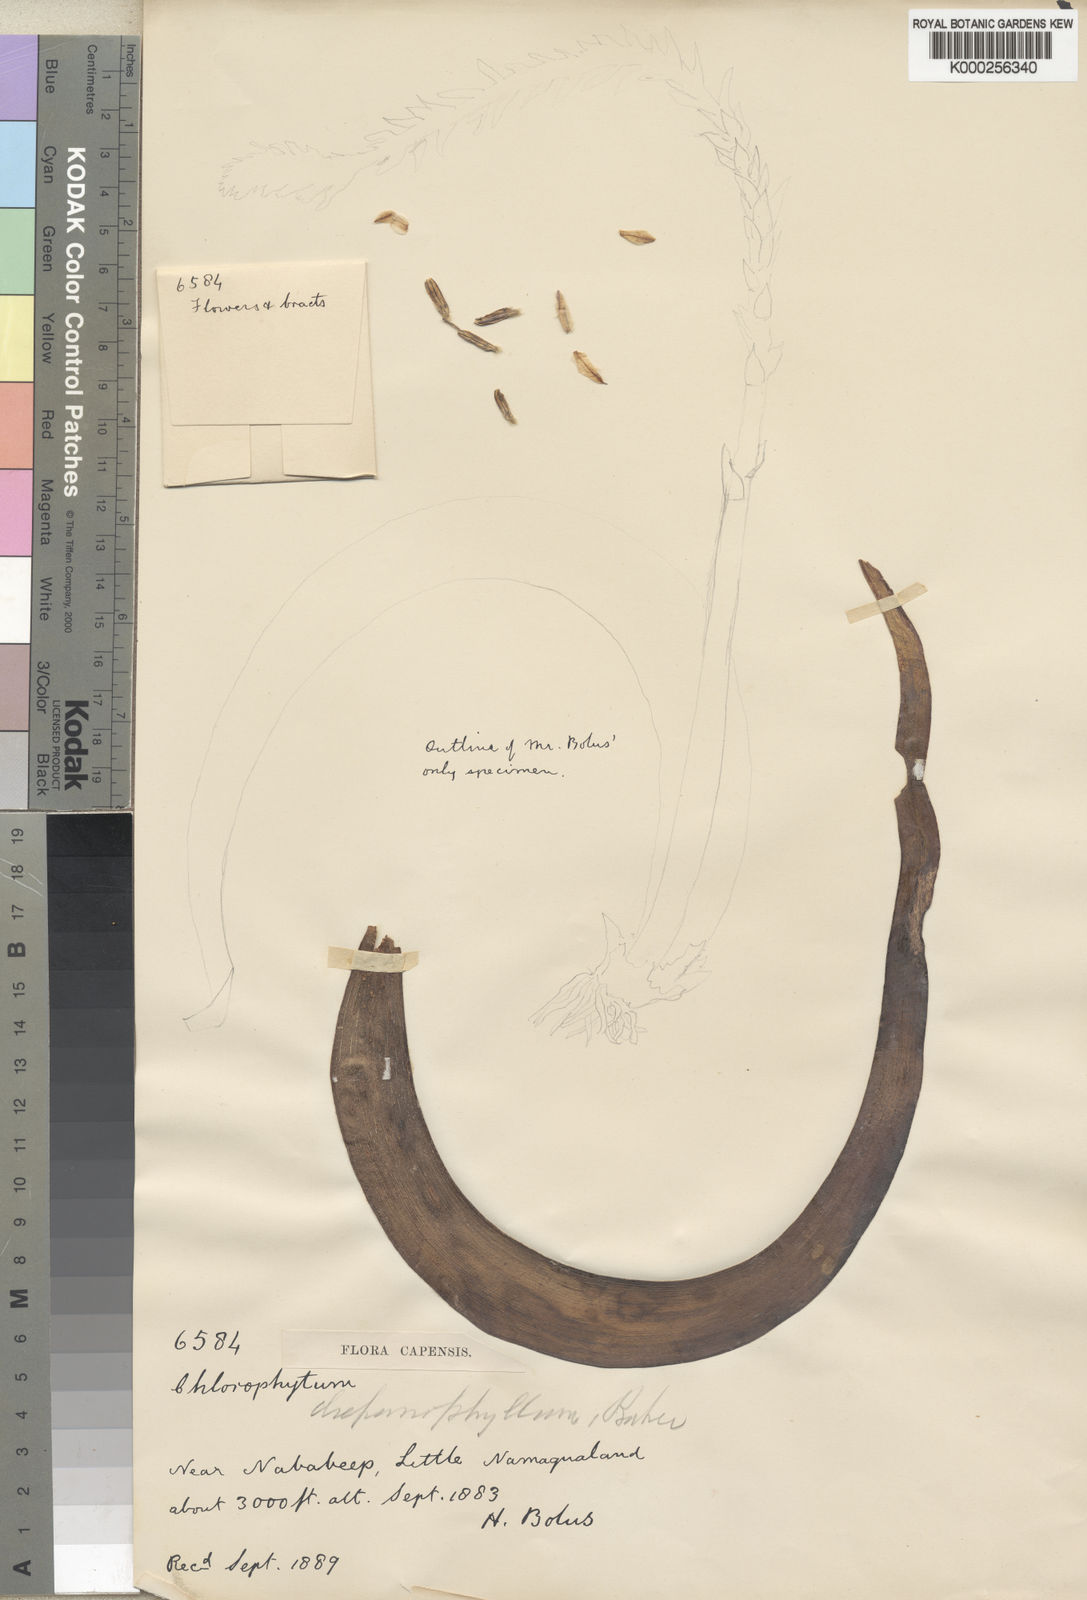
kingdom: Plantae
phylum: Tracheophyta
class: Liliopsida
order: Asparagales
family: Asphodelaceae
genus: Trachyandra
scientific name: Trachyandra falcata
